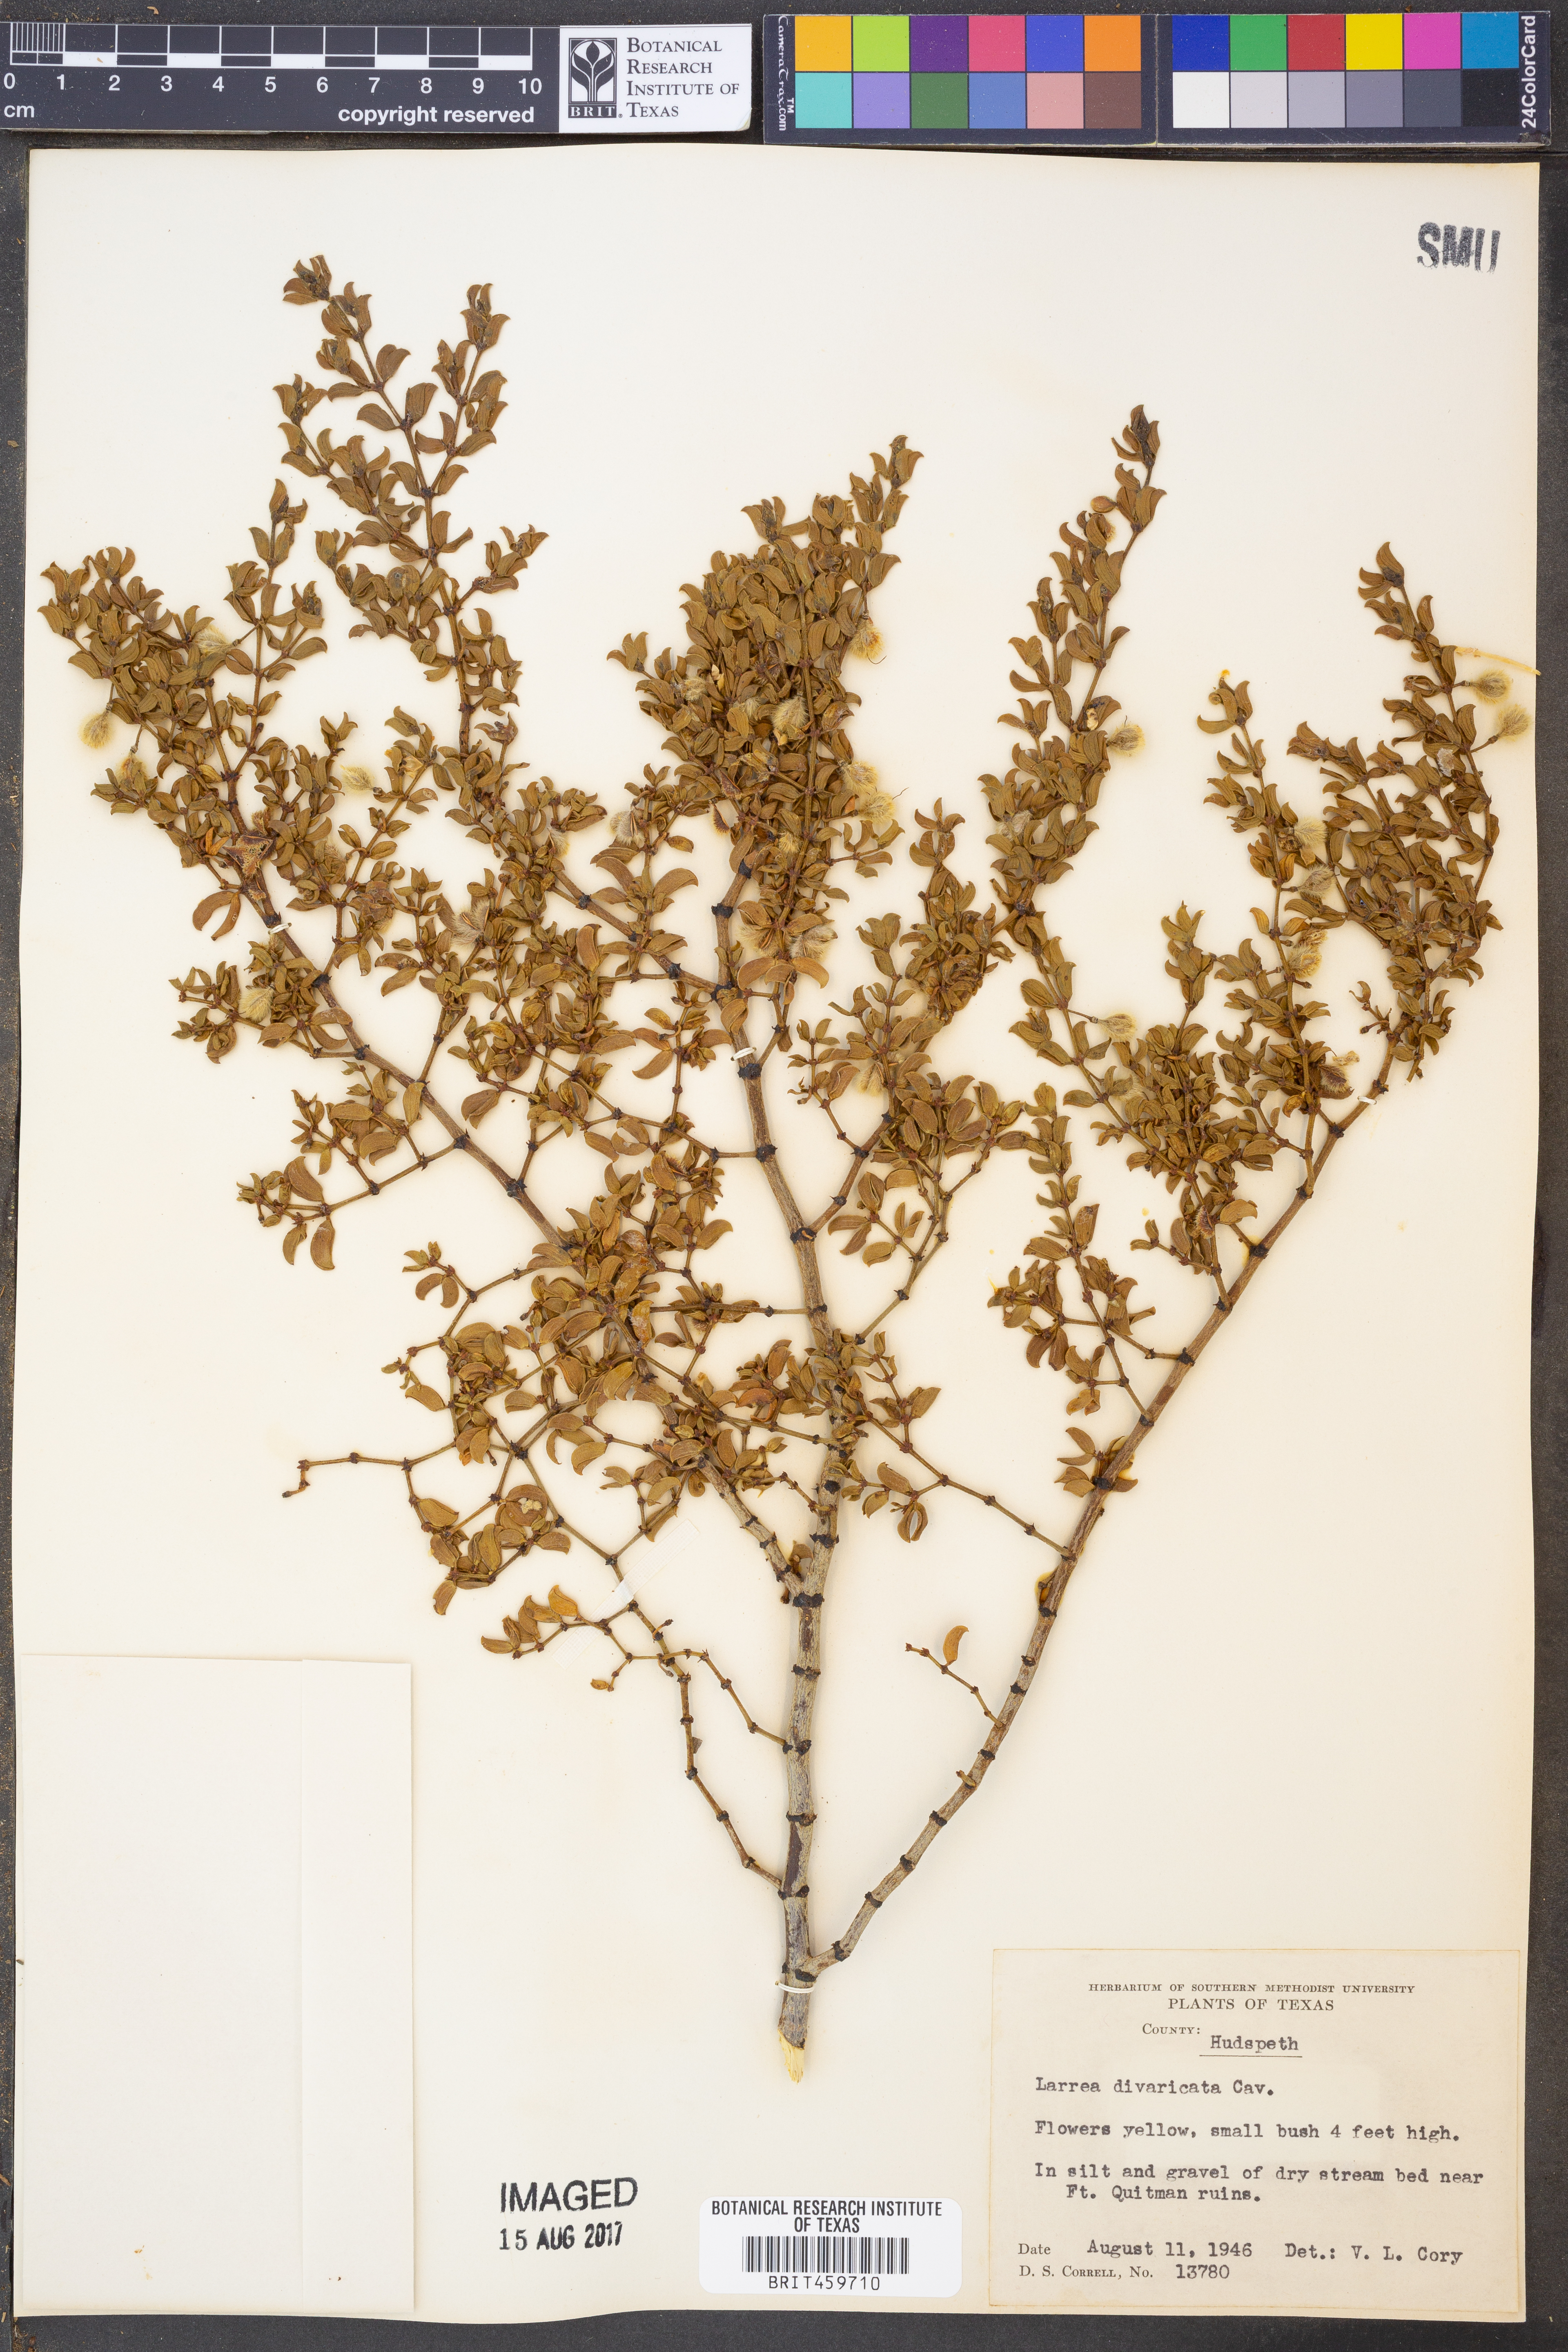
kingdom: Plantae
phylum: Tracheophyta
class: Magnoliopsida
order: Zygophyllales
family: Zygophyllaceae
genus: Larrea
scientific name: Larrea divaricata
